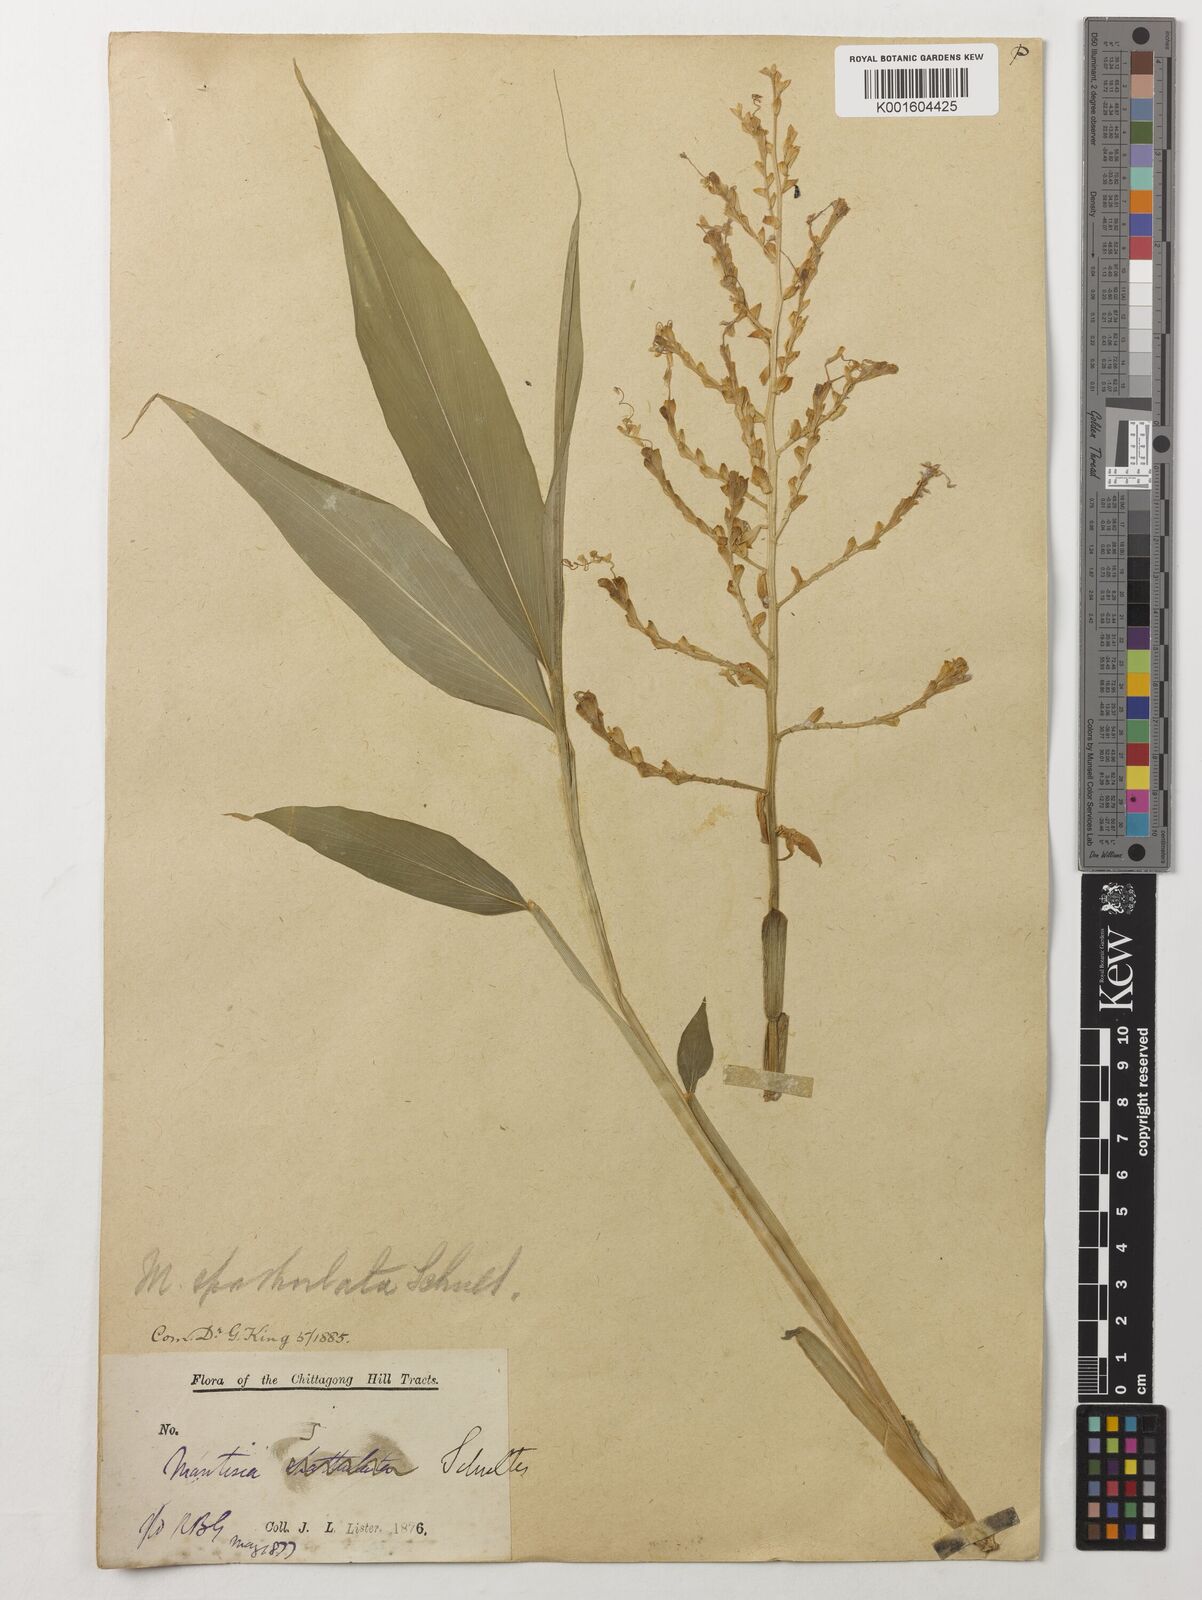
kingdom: Plantae
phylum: Tracheophyta
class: Liliopsida
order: Zingiberales
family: Zingiberaceae
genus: Globba
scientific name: Globba spathulata
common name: Dancing girl flower
